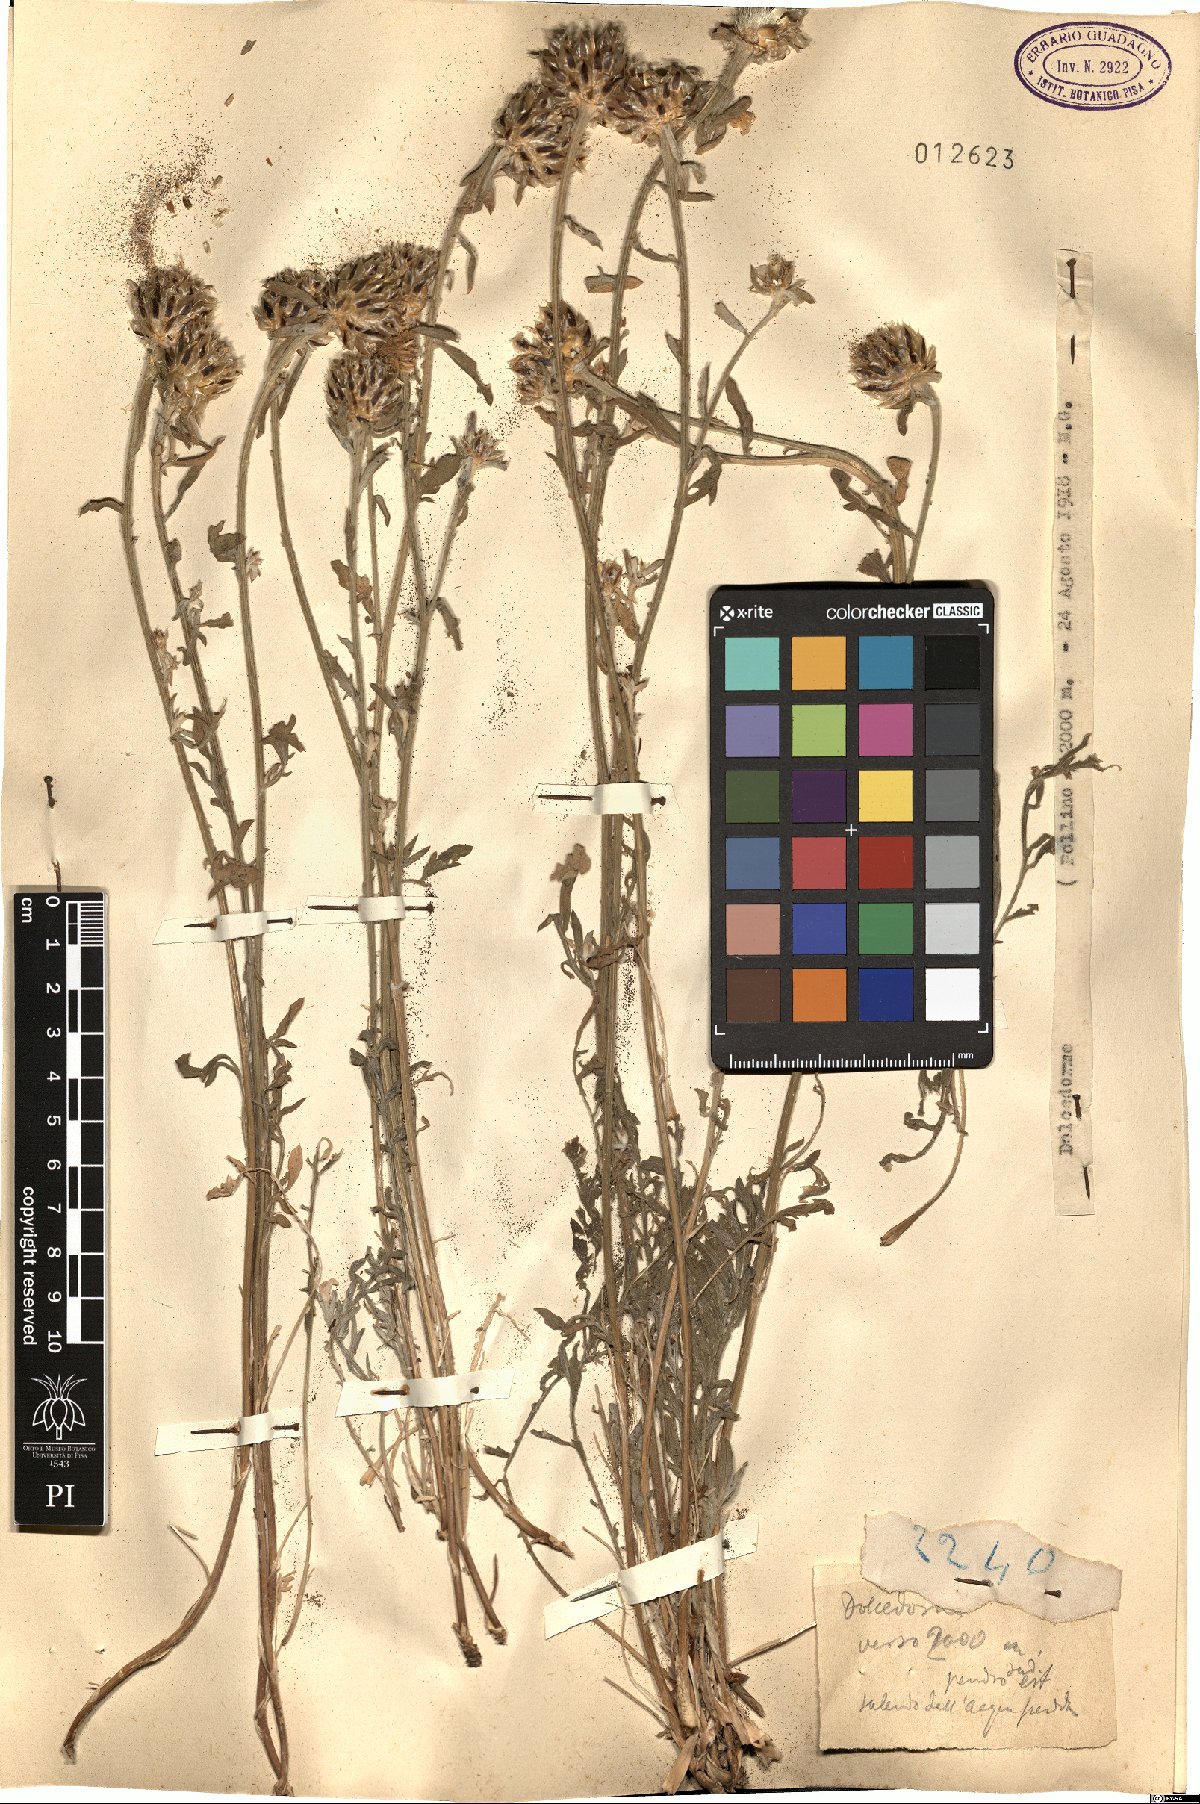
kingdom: Plantae
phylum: Tracheophyta
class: Magnoliopsida
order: Asterales
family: Asteraceae
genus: Centaurea
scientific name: Centaurea
